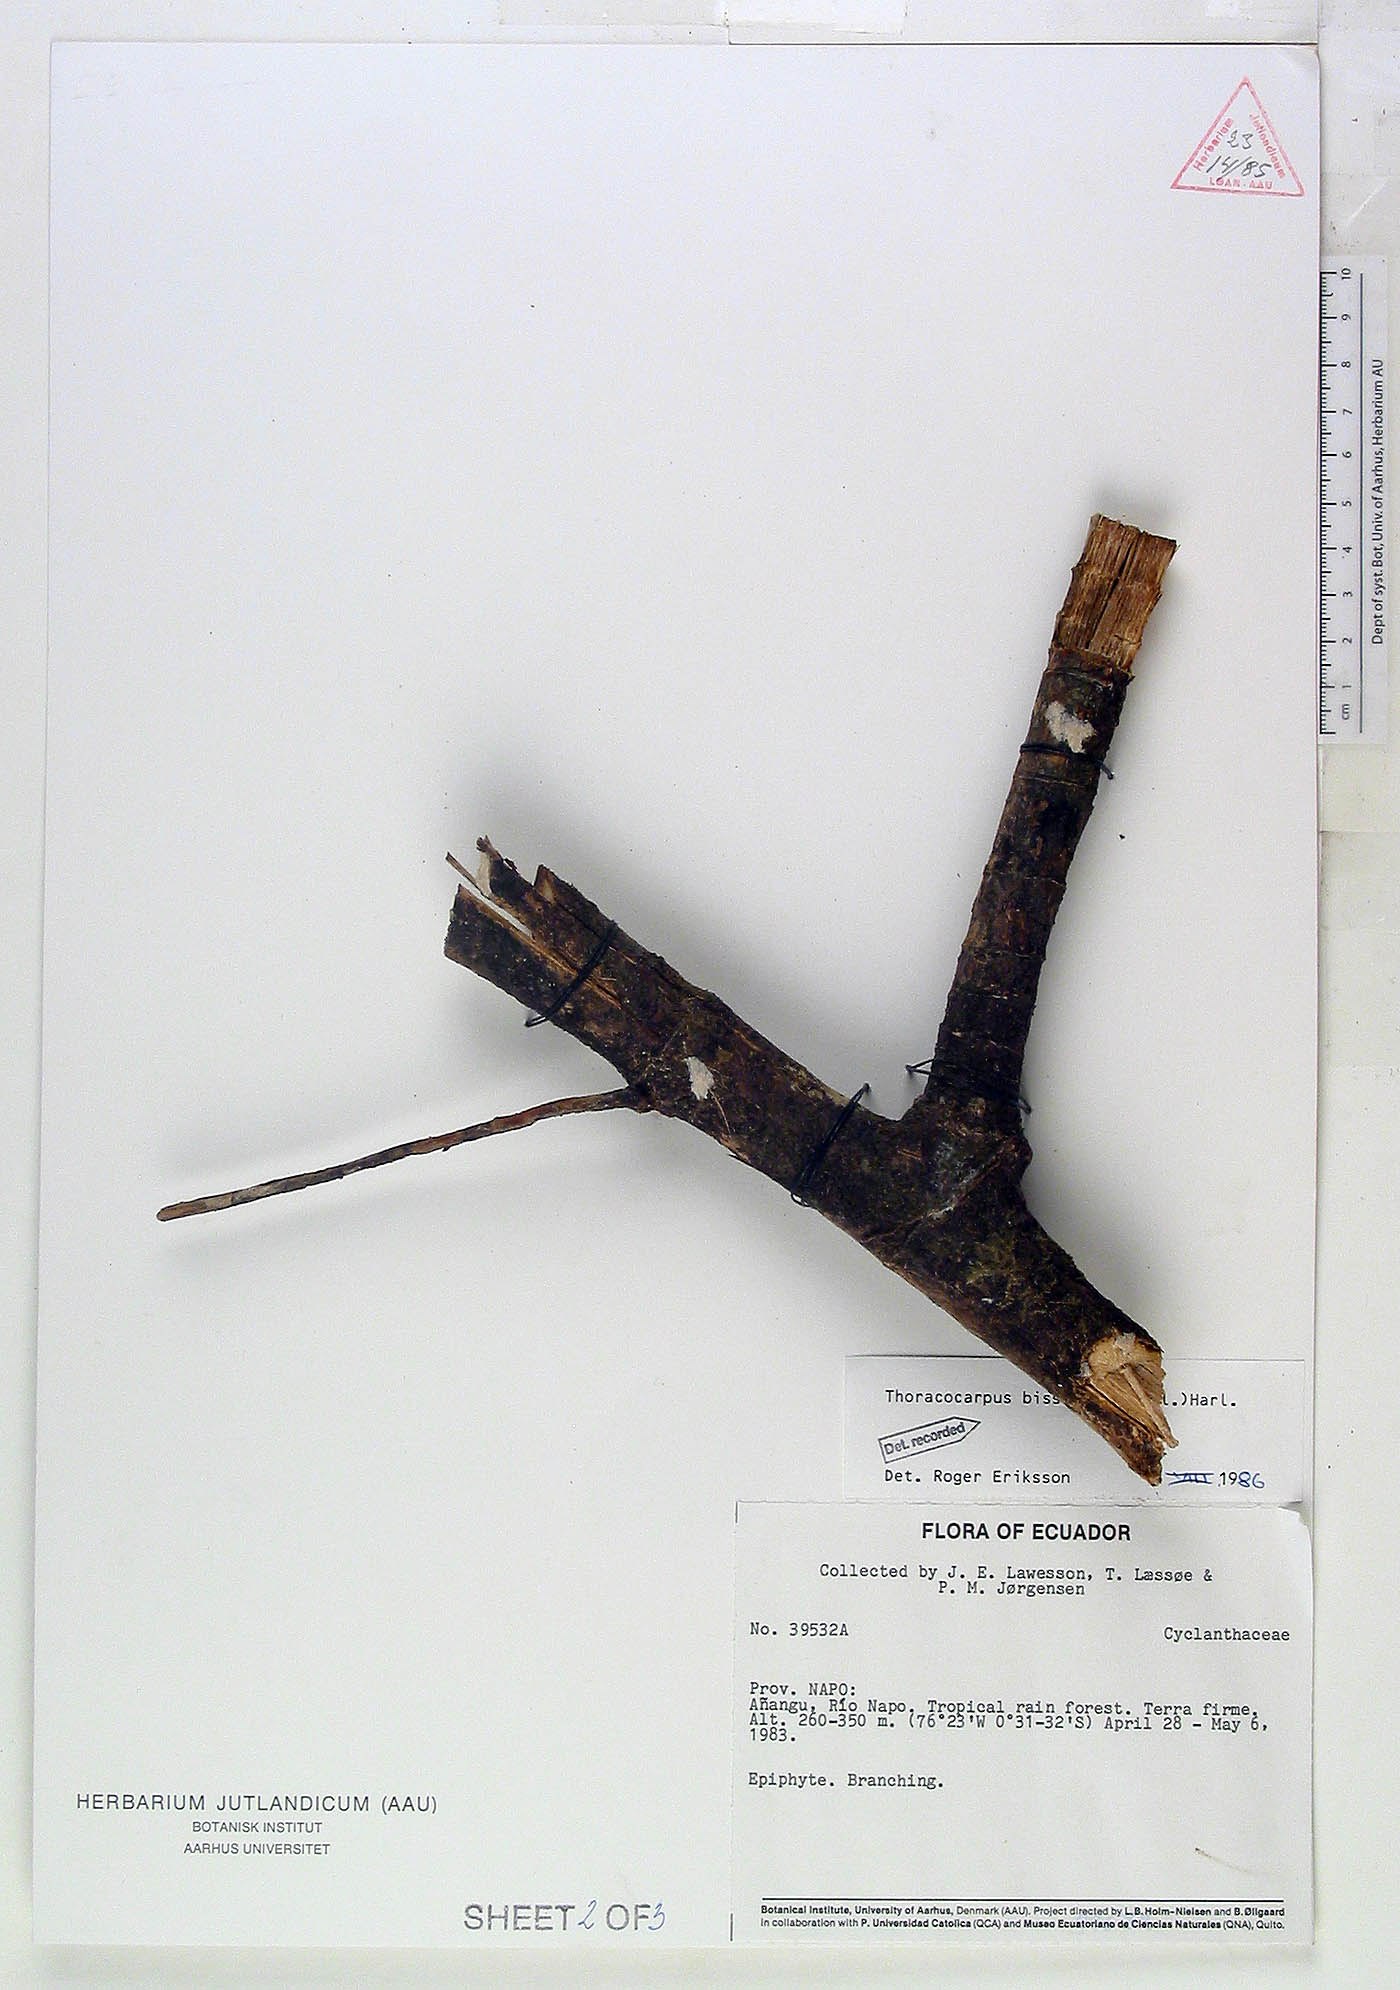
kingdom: Plantae
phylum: Tracheophyta
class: Liliopsida
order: Pandanales
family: Cyclanthaceae
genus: Thoracocarpus
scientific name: Thoracocarpus bissectus
